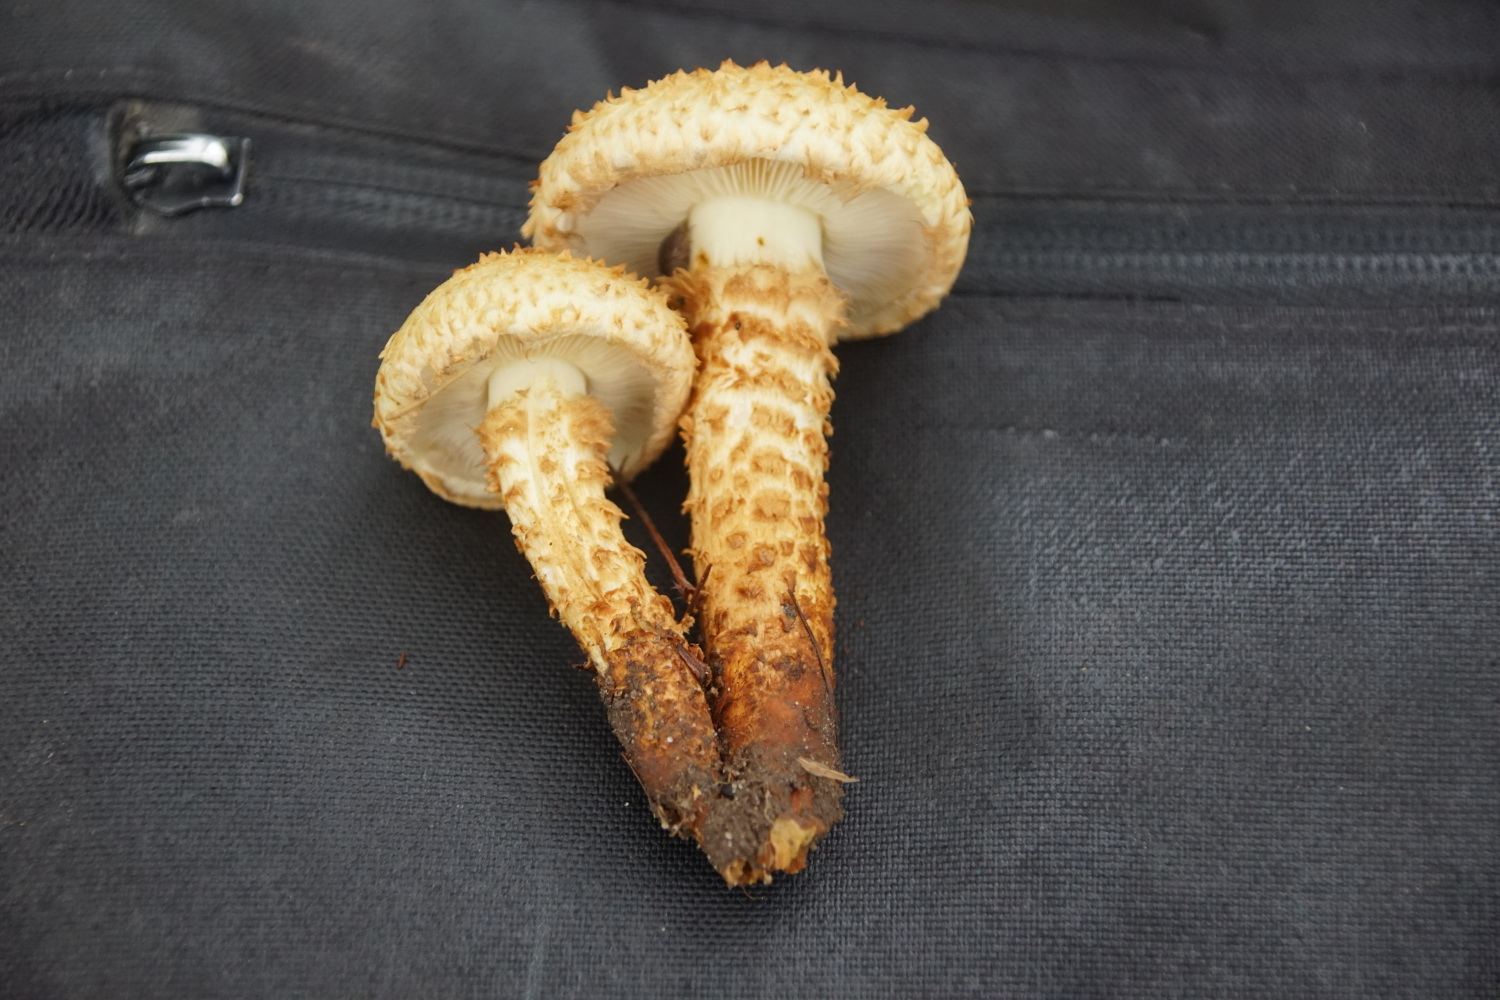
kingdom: Fungi
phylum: Basidiomycota
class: Agaricomycetes
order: Agaricales
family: Strophariaceae
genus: Pholiota
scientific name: Pholiota squarrosa
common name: krumskællet skælhat
